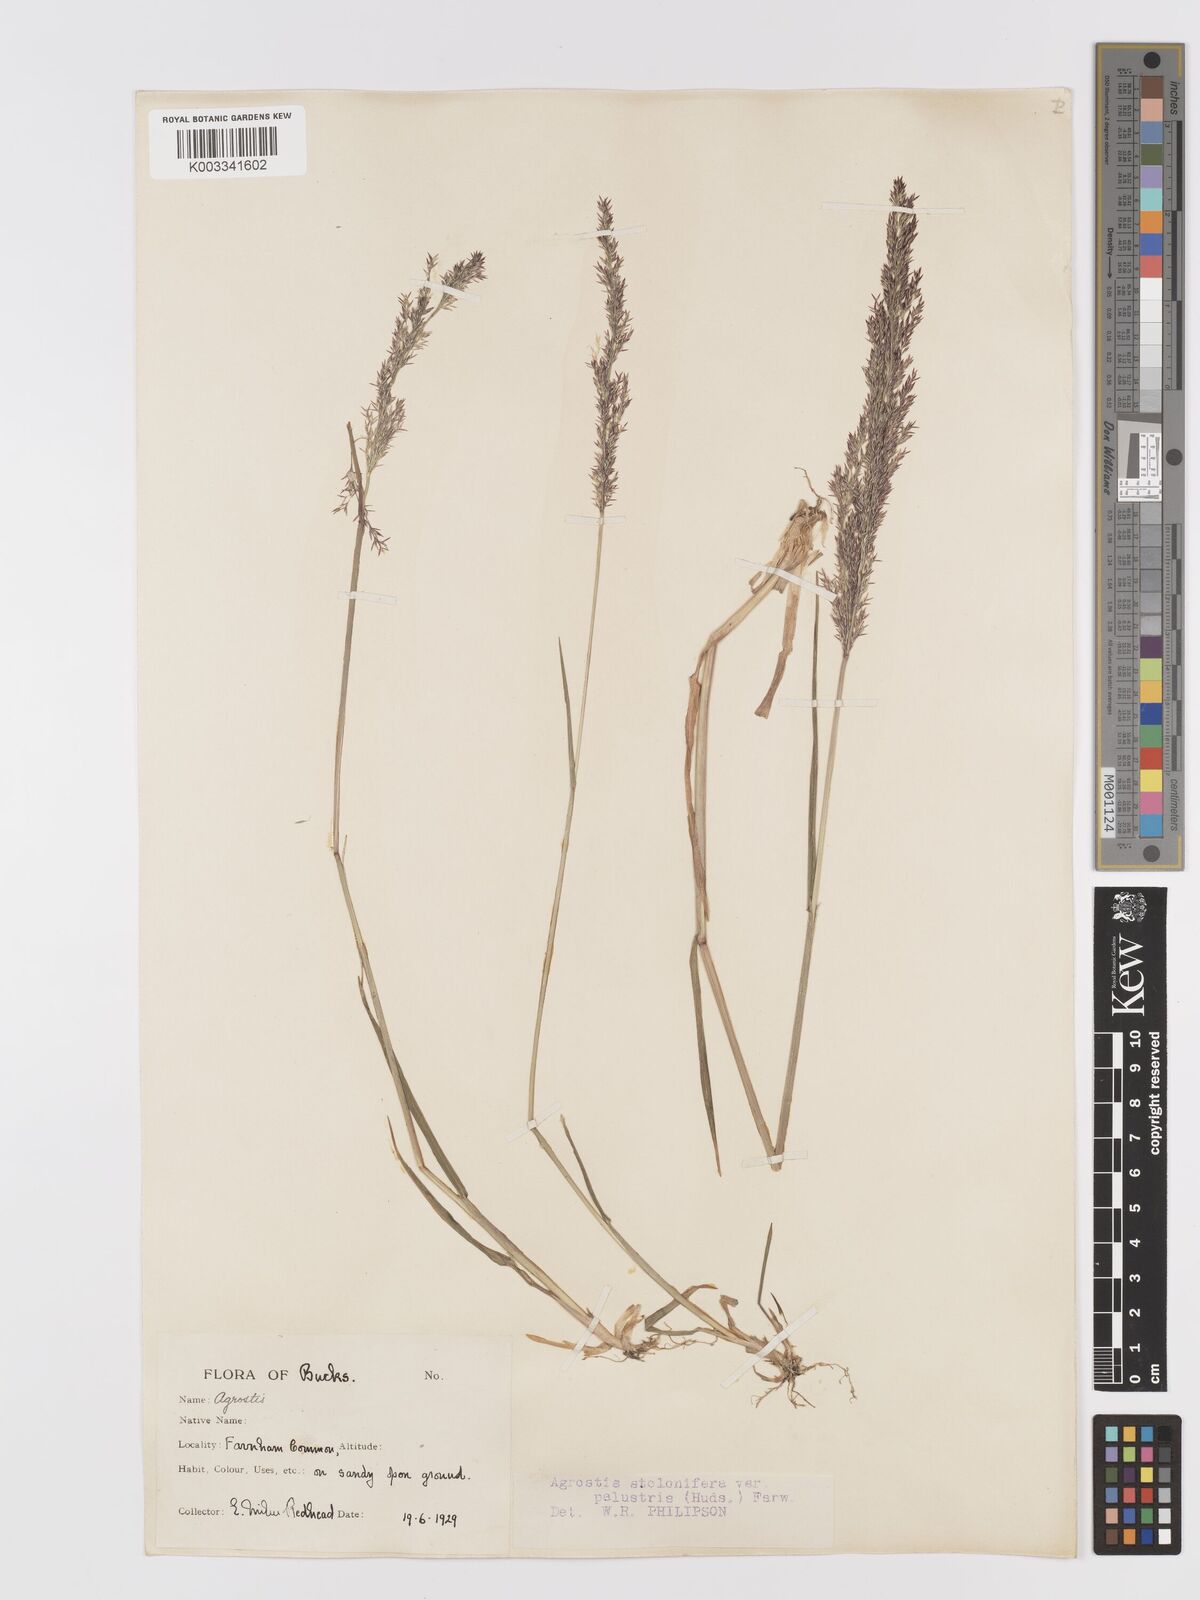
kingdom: Plantae
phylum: Tracheophyta
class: Liliopsida
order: Poales
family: Poaceae
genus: Agrostis
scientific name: Agrostis stolonifera
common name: Creeping bentgrass
